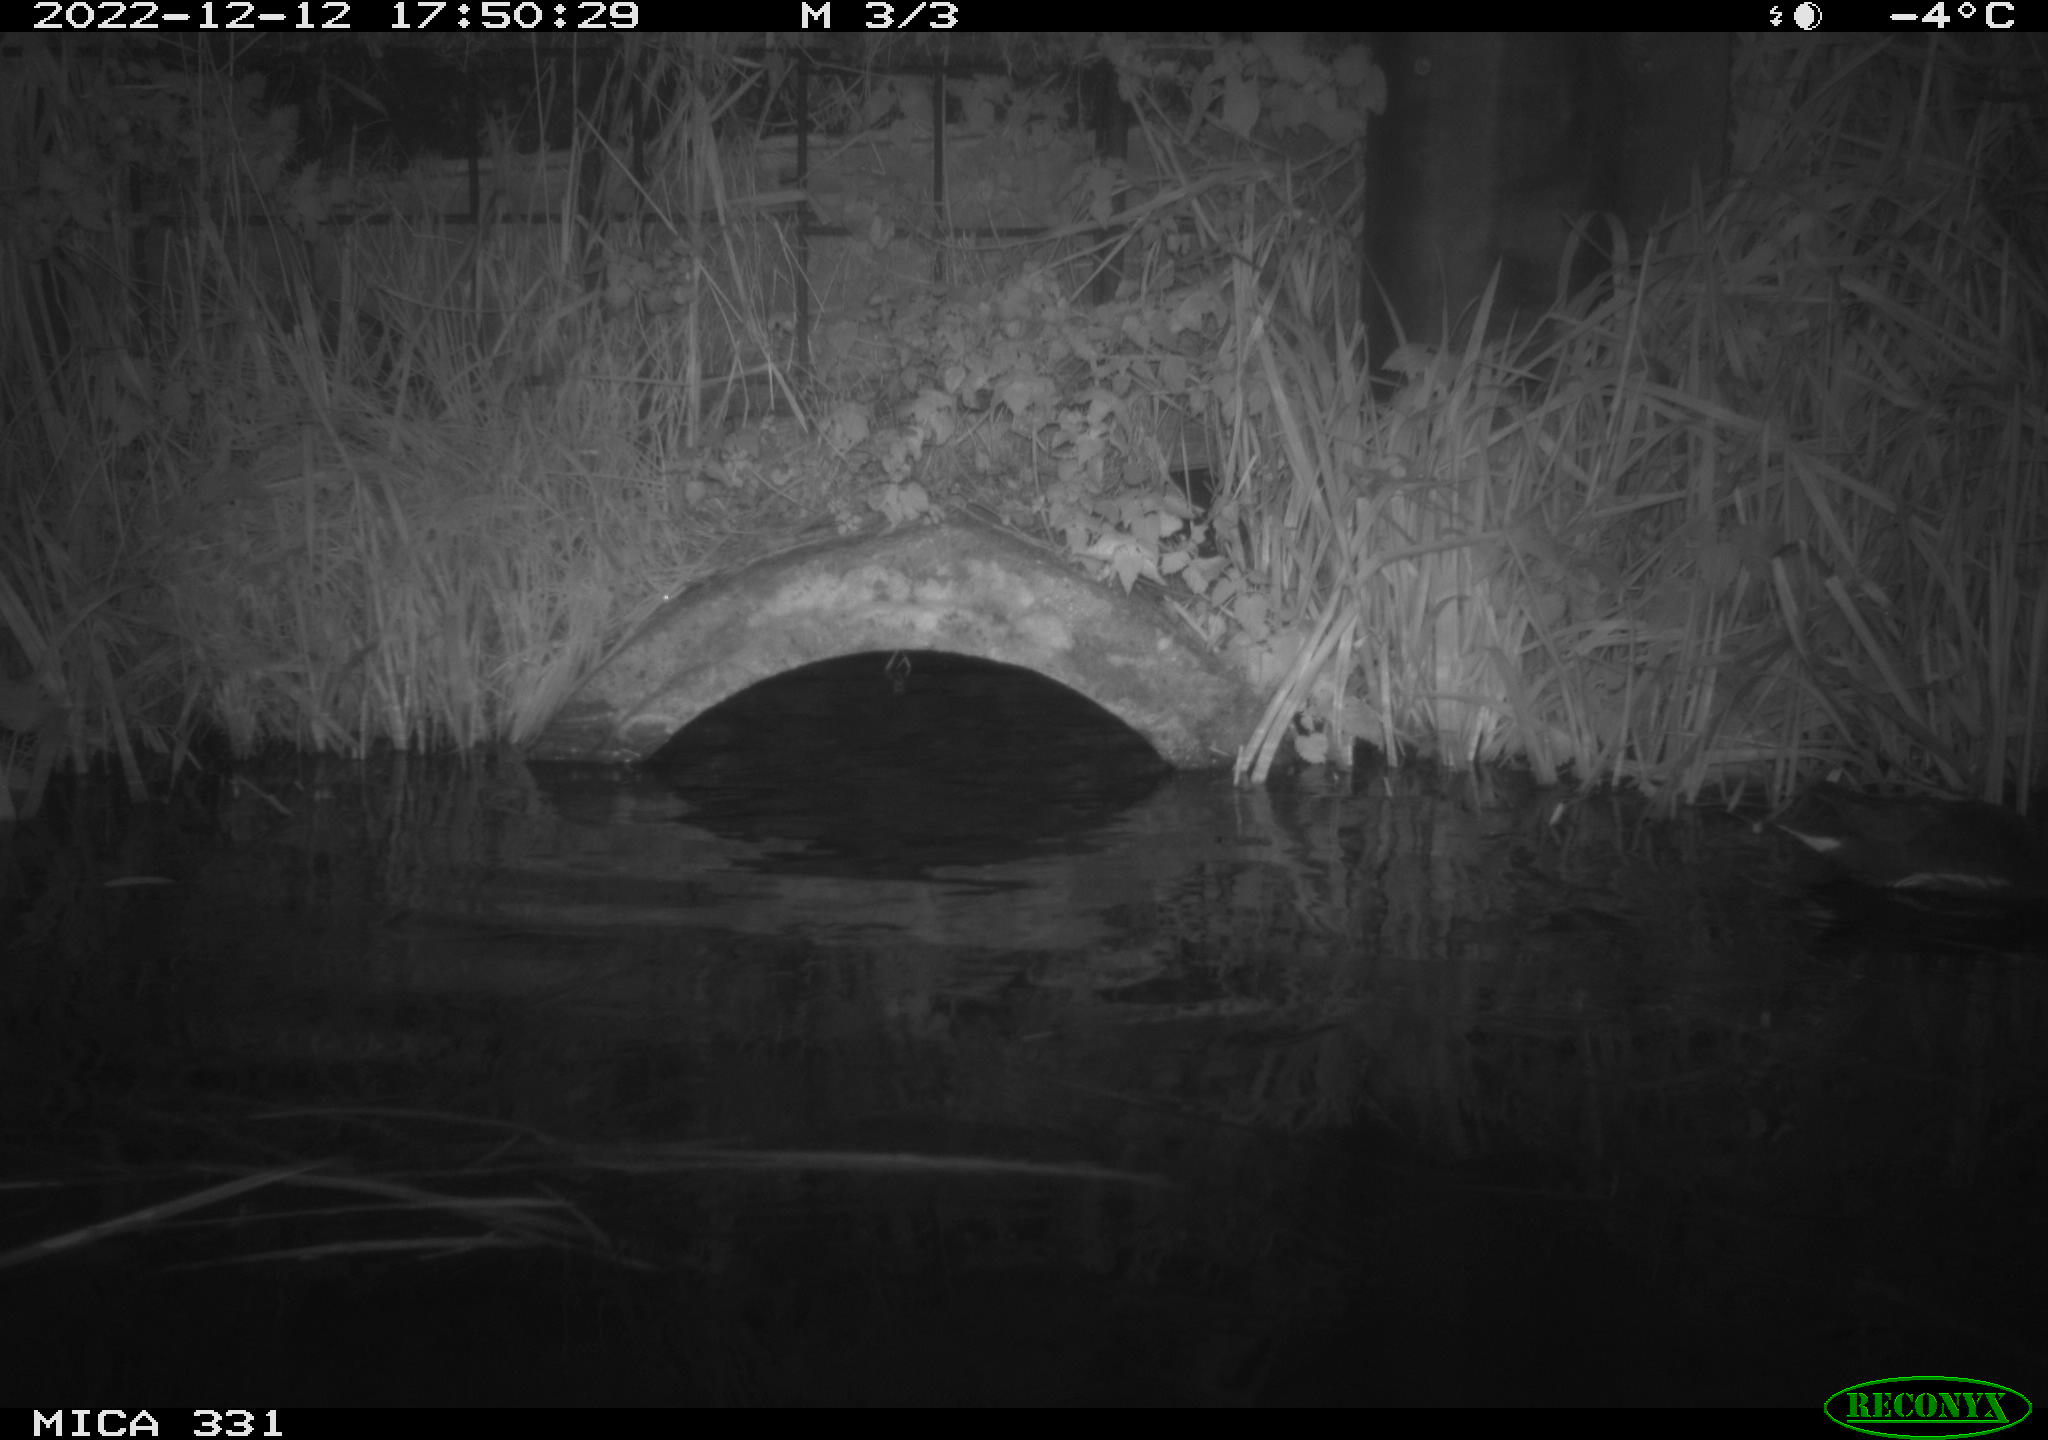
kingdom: Animalia
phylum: Chordata
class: Aves
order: Gruiformes
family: Rallidae
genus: Gallinula
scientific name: Gallinula chloropus
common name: Common moorhen
